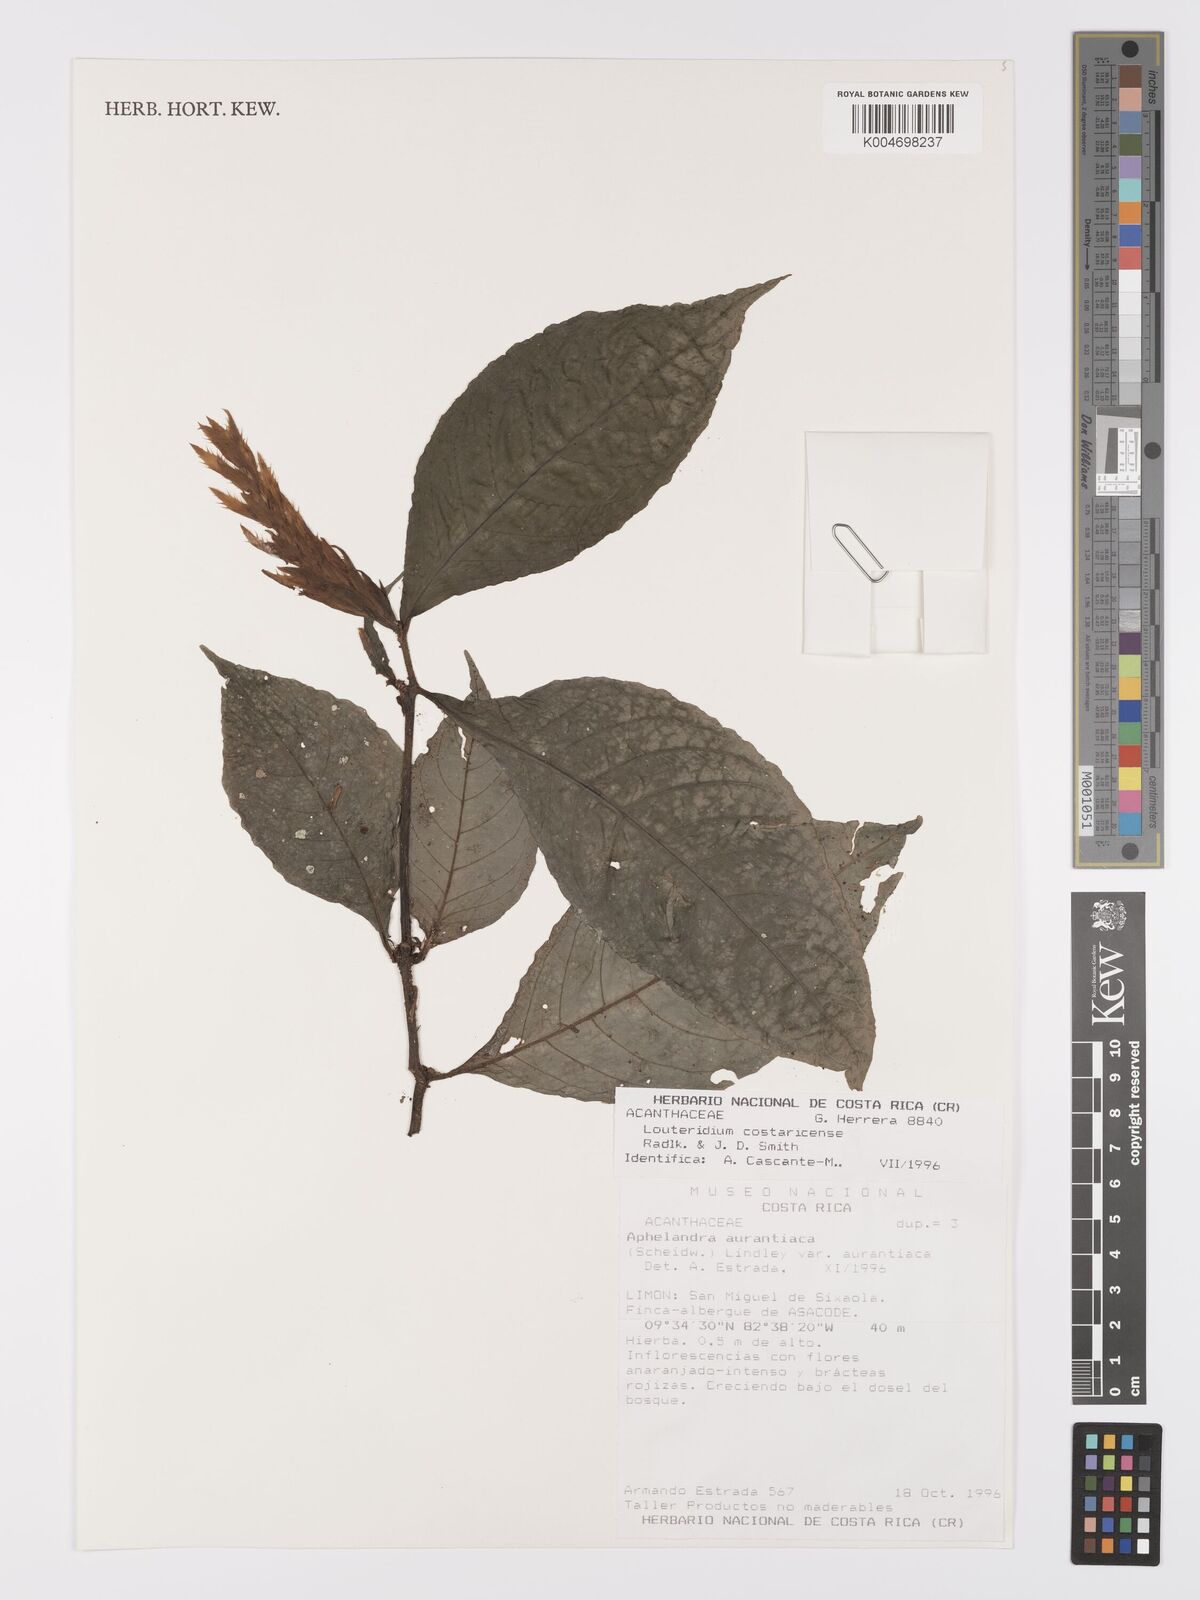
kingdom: Plantae
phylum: Tracheophyta
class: Magnoliopsida
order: Lamiales
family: Acanthaceae
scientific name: Acanthaceae
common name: Acanthaceae
